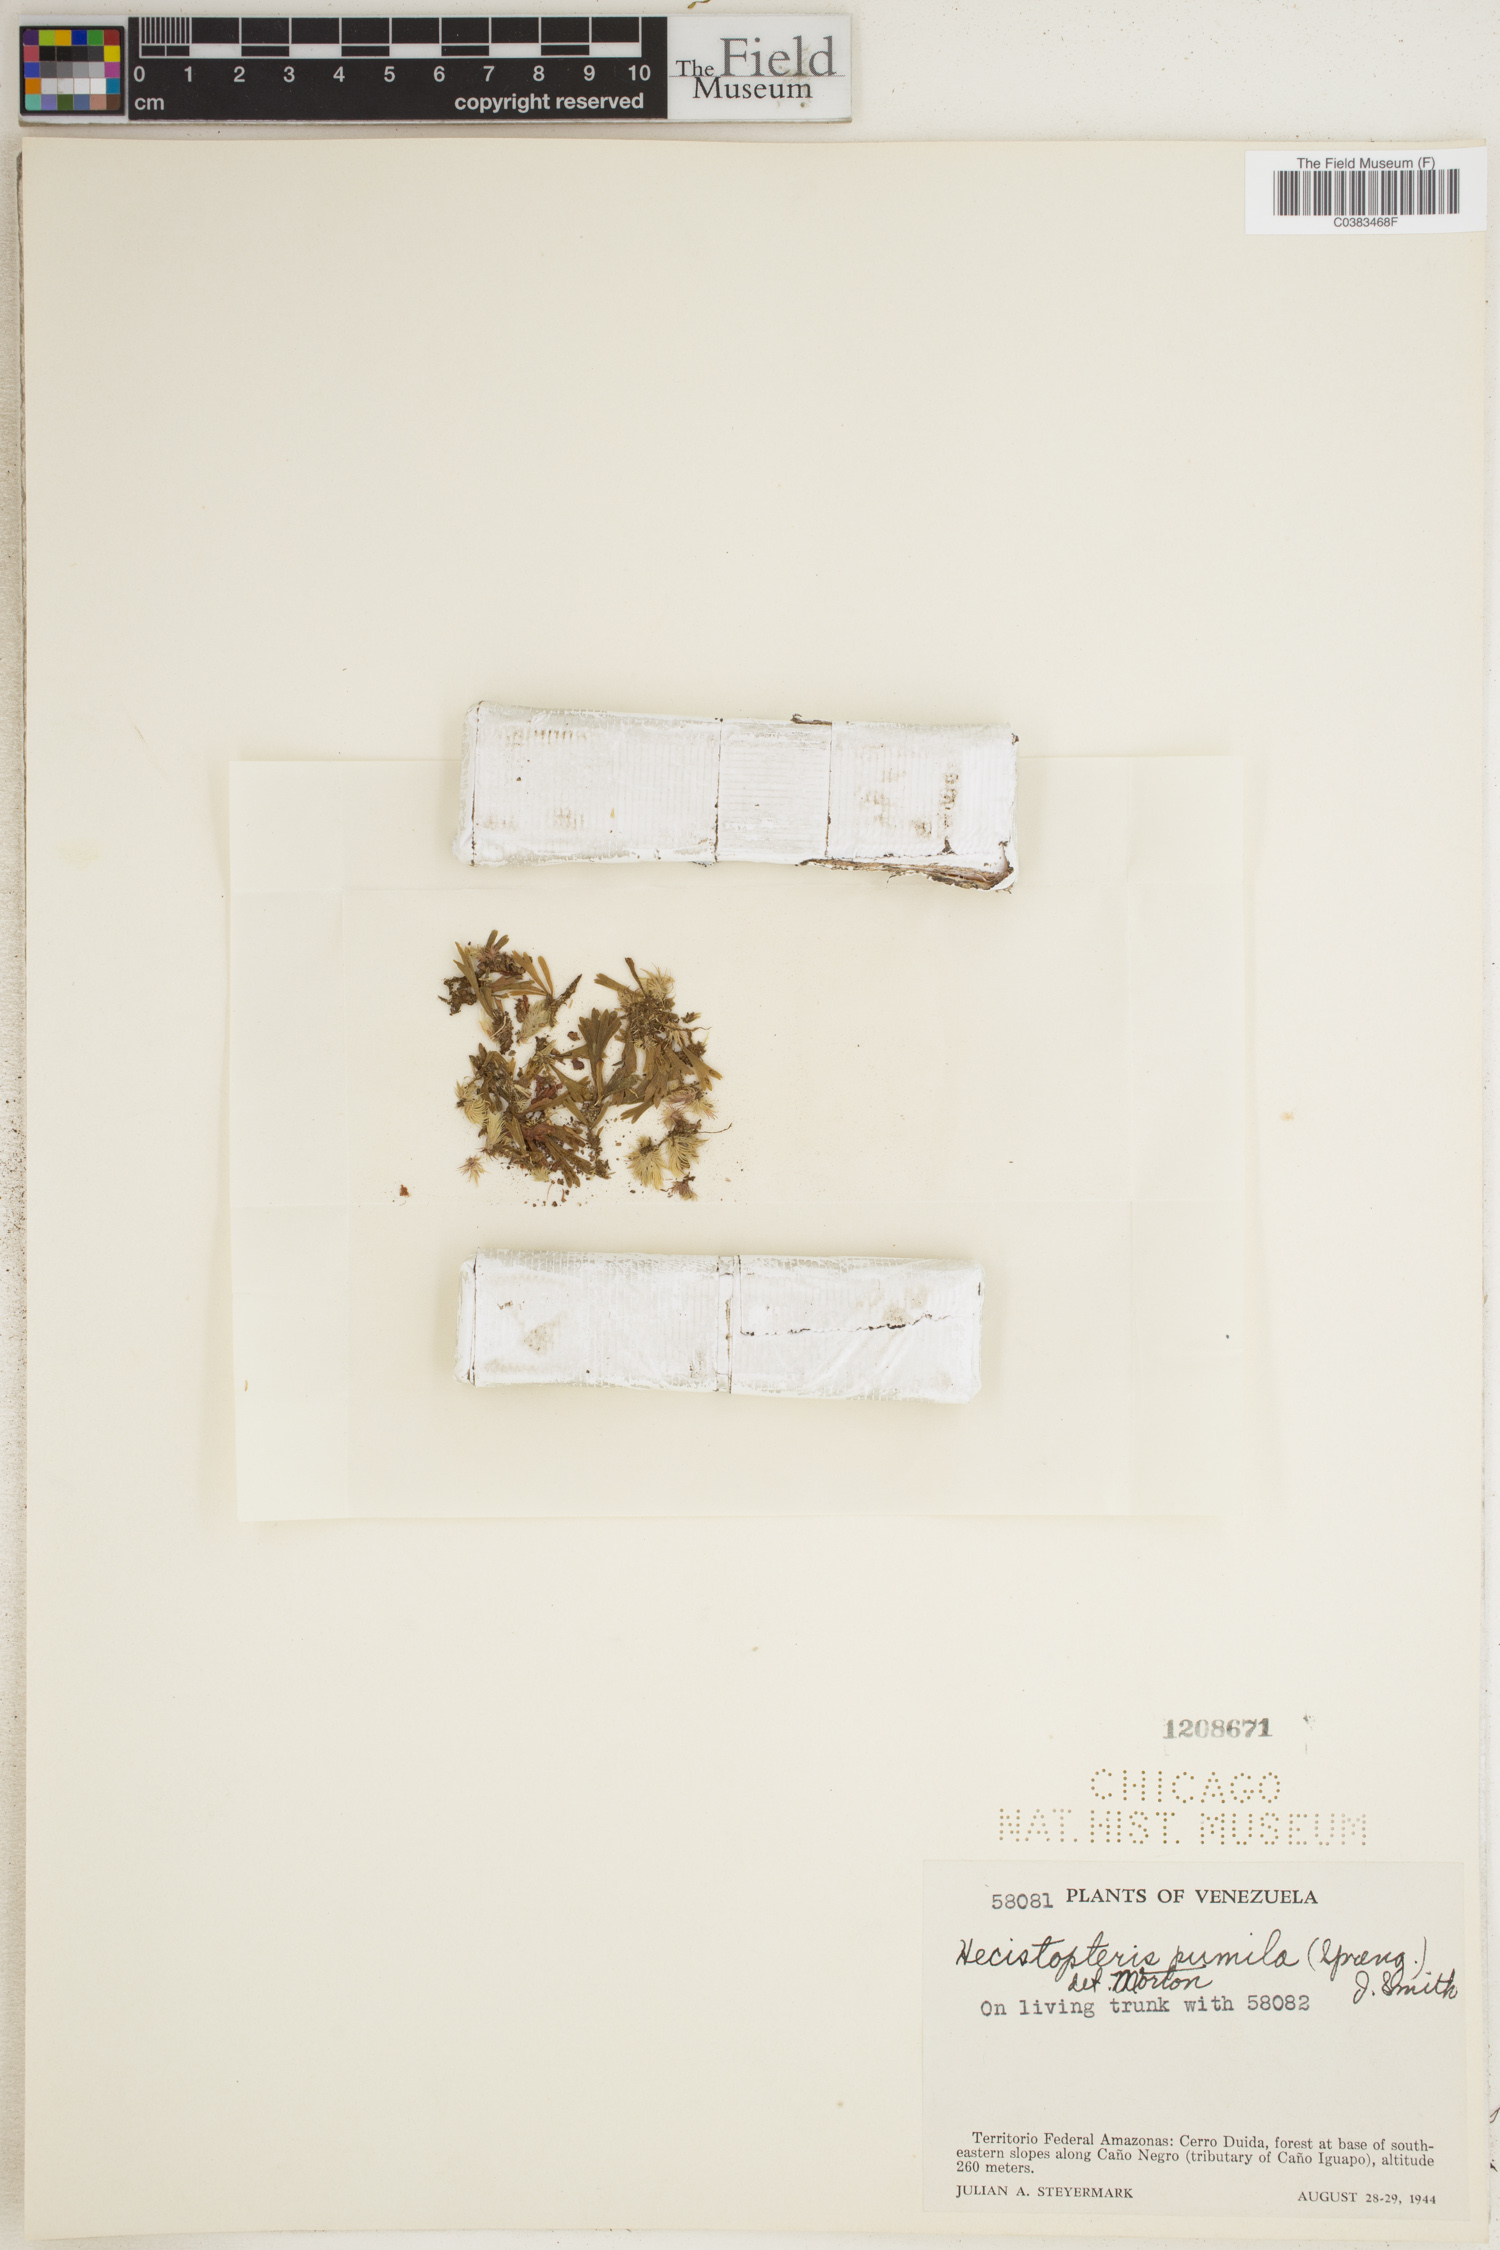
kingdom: Plantae
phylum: Tracheophyta
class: Polypodiopsida
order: Polypodiales
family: Pteridaceae
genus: Hecistopteris
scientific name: Hecistopteris pumila
